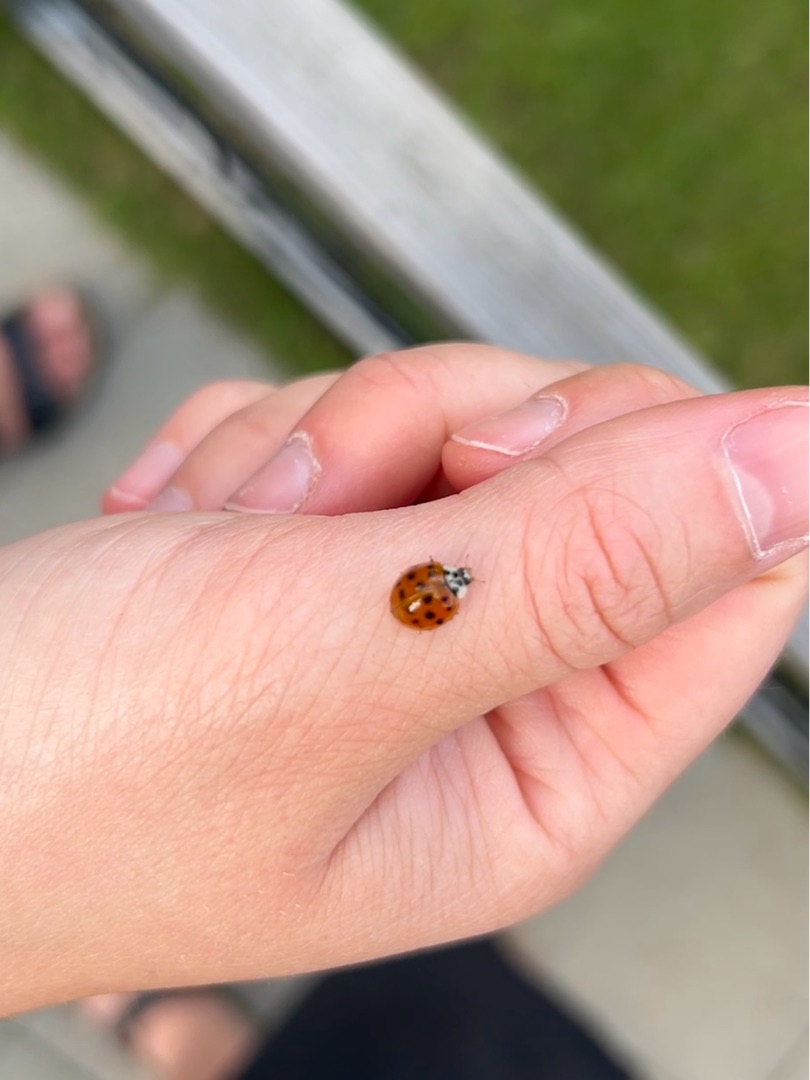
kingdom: Animalia
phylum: Arthropoda
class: Insecta
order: Coleoptera
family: Coccinellidae
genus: Harmonia
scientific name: Harmonia axyridis
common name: Harlekinmariehøne
